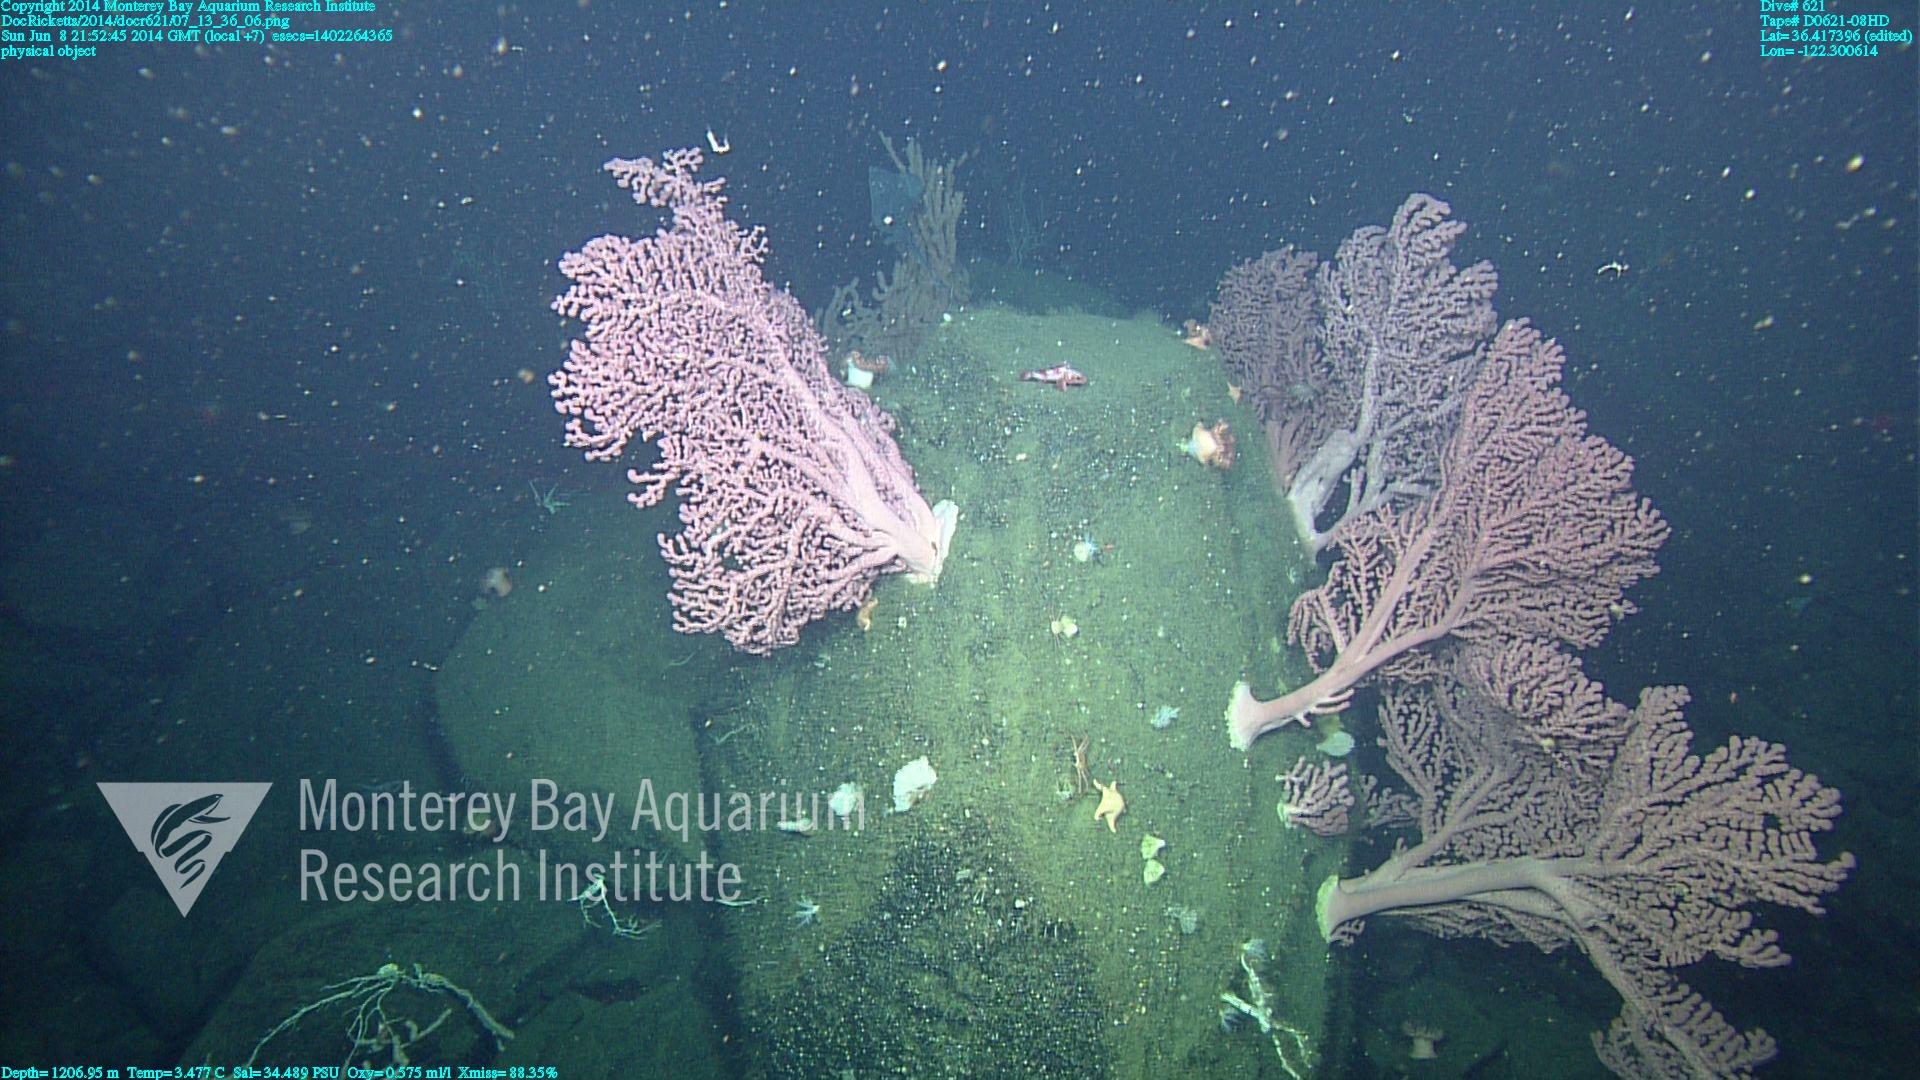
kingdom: Animalia
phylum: Cnidaria
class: Anthozoa
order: Scleralcyonacea
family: Coralliidae
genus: Paragorgia
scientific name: Paragorgia arborea
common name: Bubble gum coral
